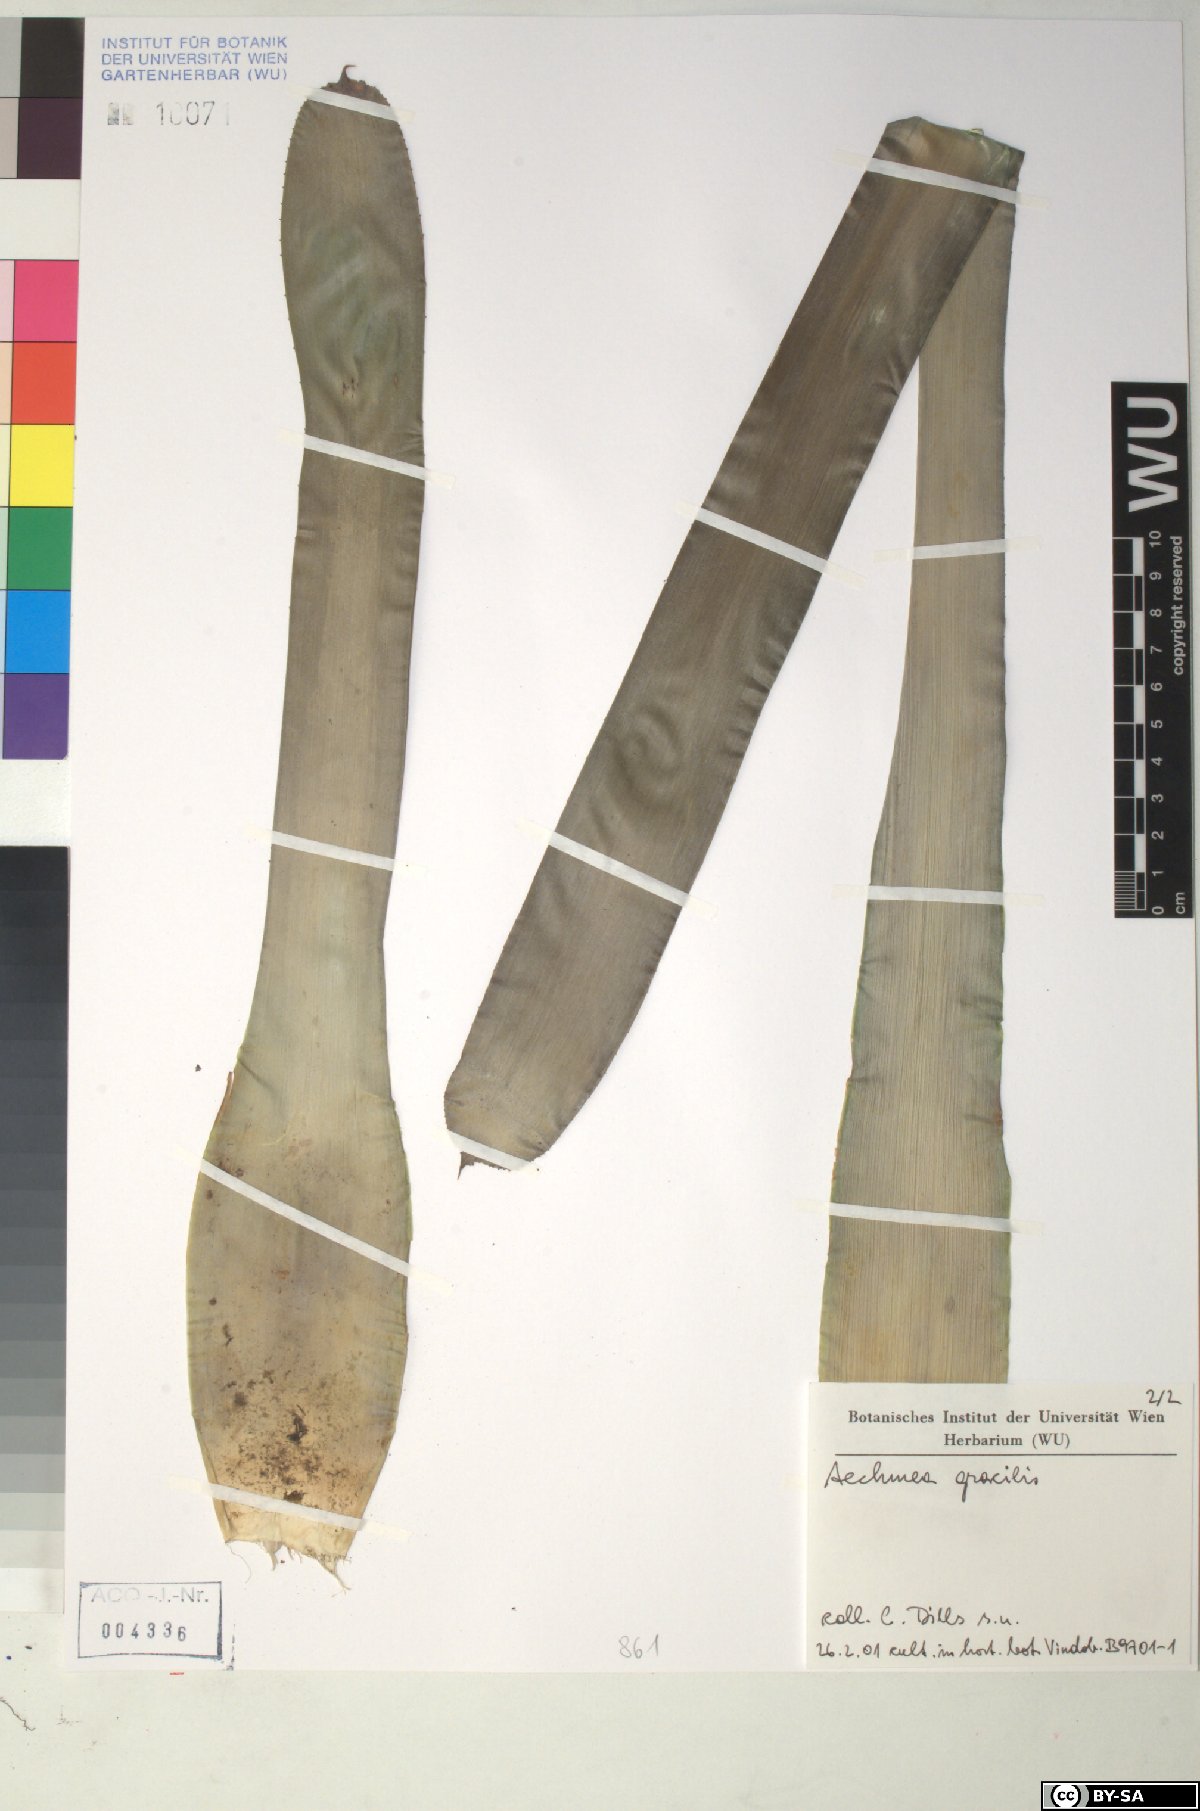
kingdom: Plantae
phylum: Tracheophyta
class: Liliopsida
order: Poales
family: Bromeliaceae
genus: Aechmea
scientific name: Aechmea
